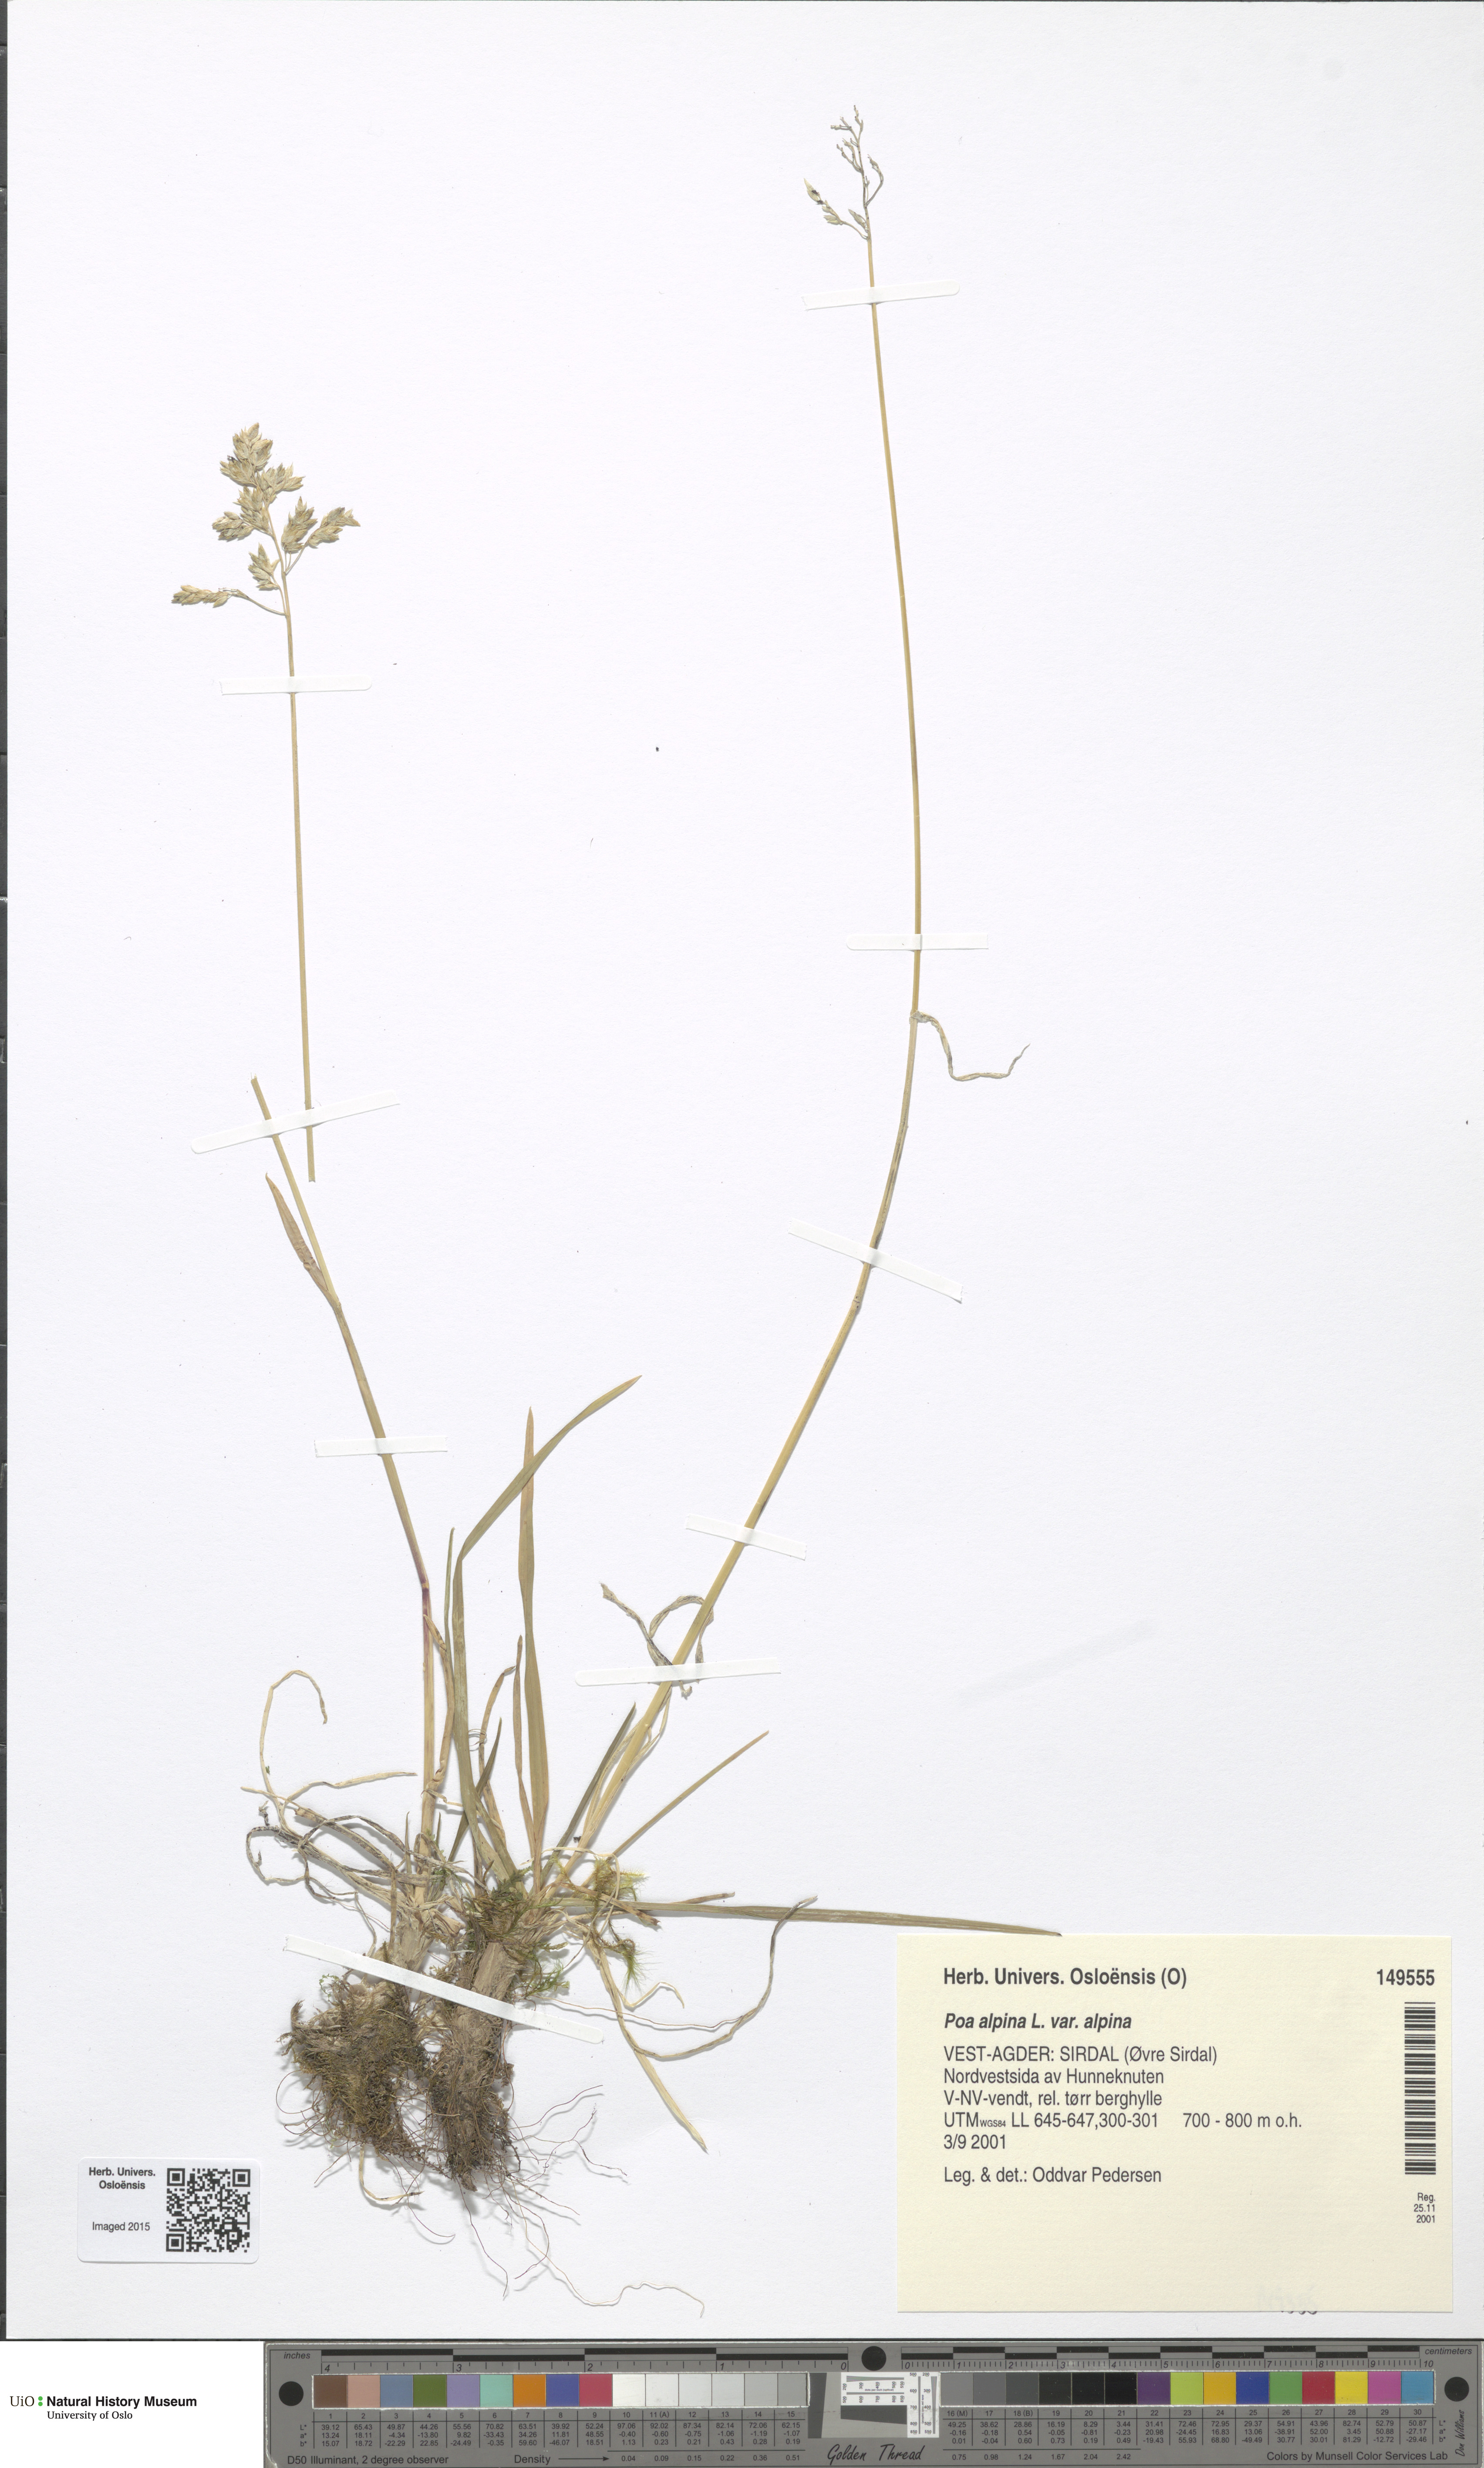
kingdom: Plantae
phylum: Tracheophyta
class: Liliopsida
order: Poales
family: Poaceae
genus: Poa
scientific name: Poa alpina
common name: Alpine bluegrass
